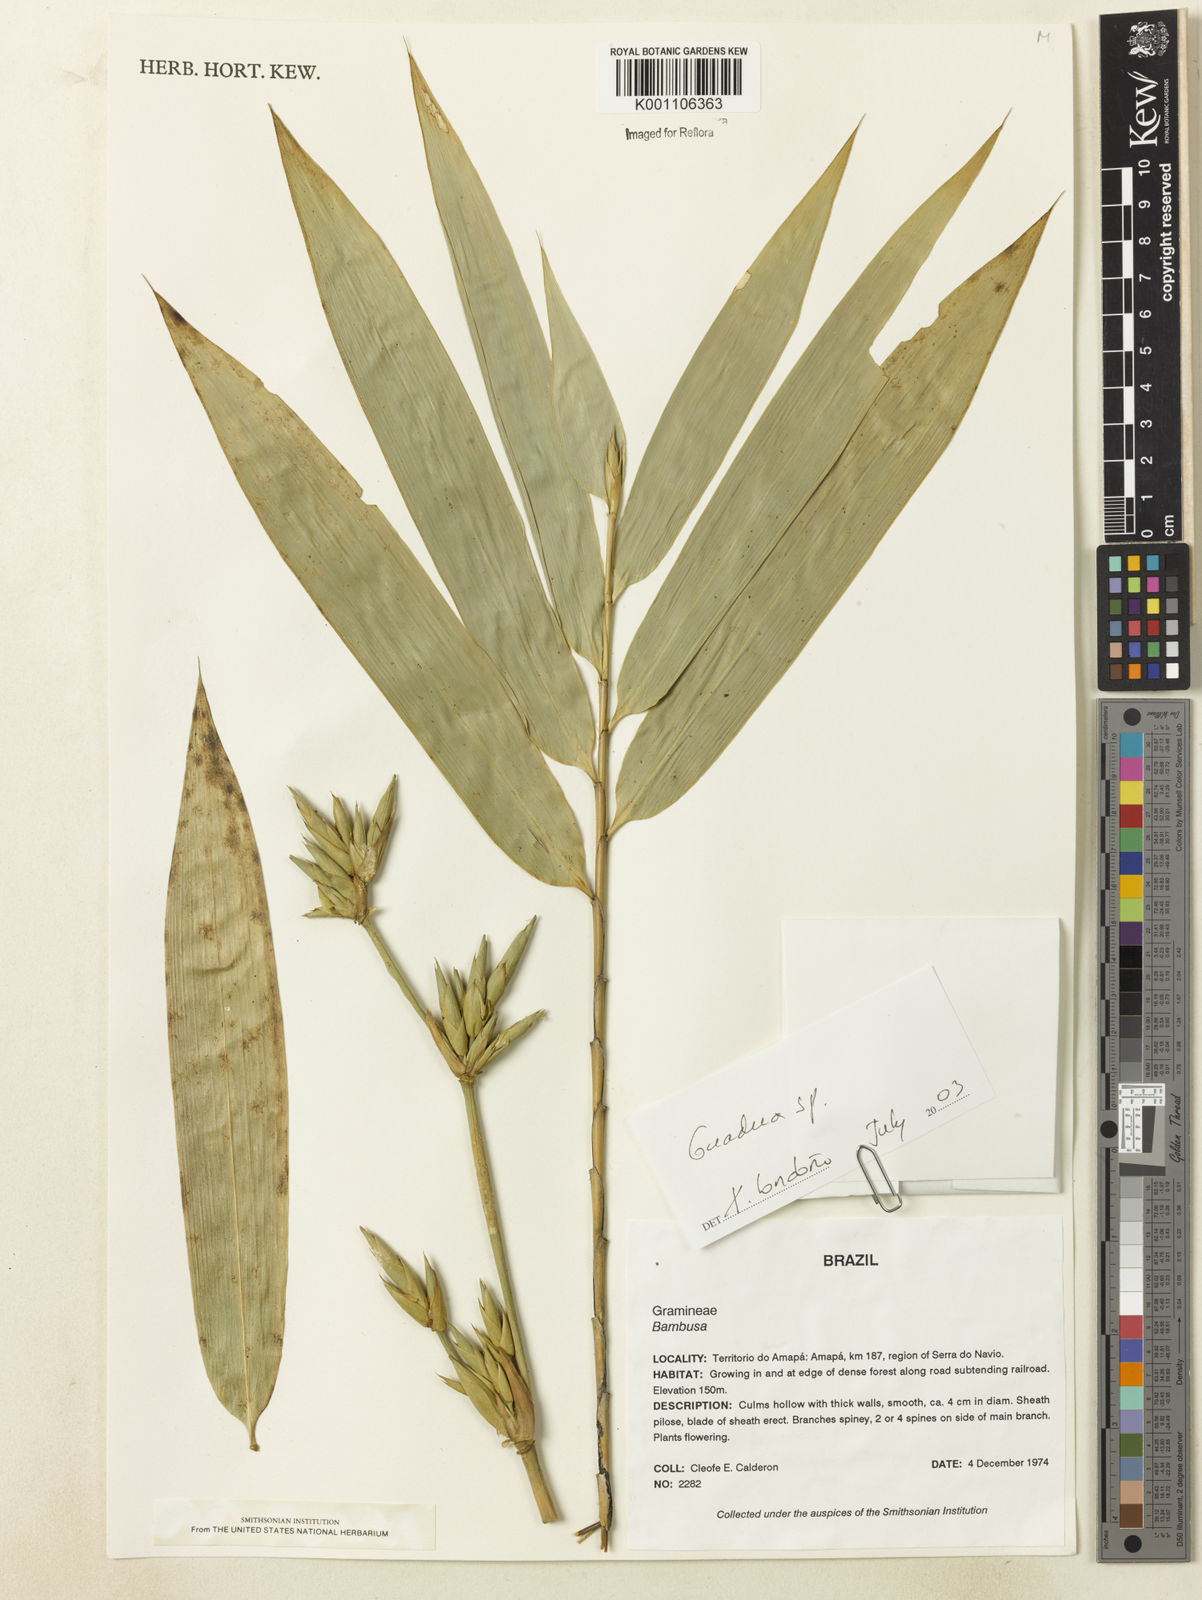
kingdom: Plantae
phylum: Tracheophyta
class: Liliopsida
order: Poales
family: Poaceae
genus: Guadua
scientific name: Guadua
